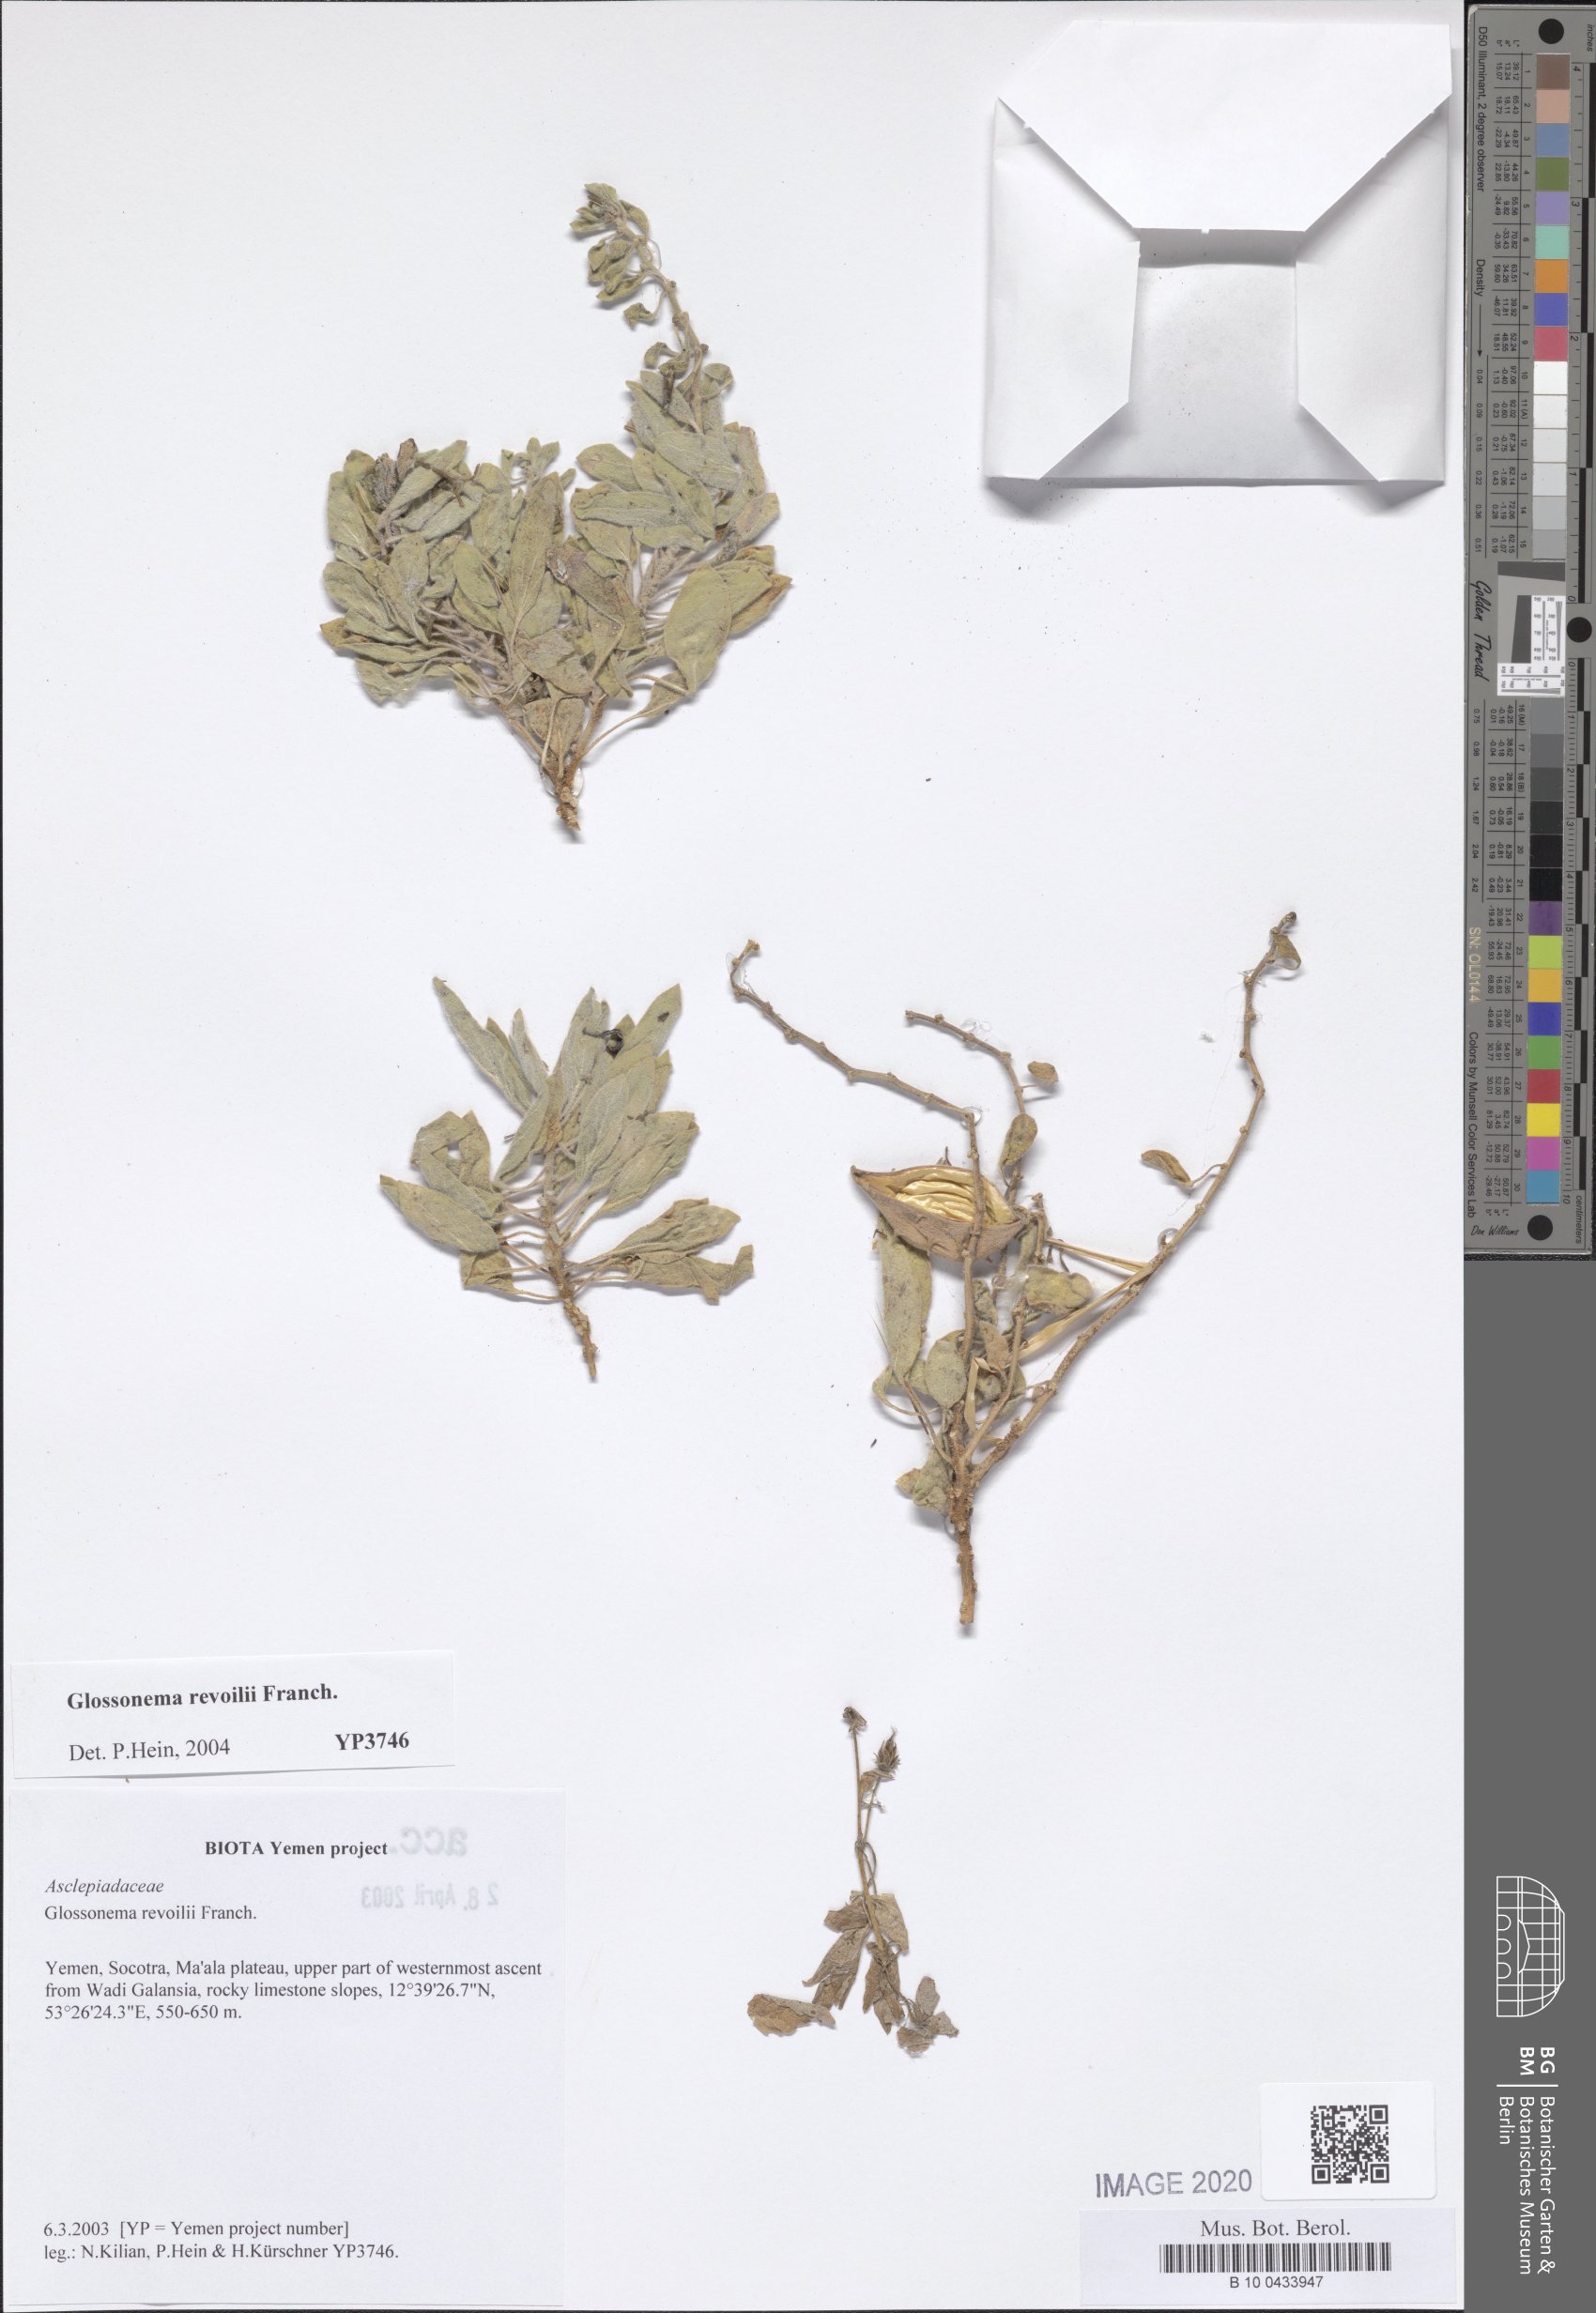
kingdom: Plantae
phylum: Tracheophyta
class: Magnoliopsida
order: Gentianales
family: Apocynaceae
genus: Cynanchum
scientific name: Cynanchum revoilii
